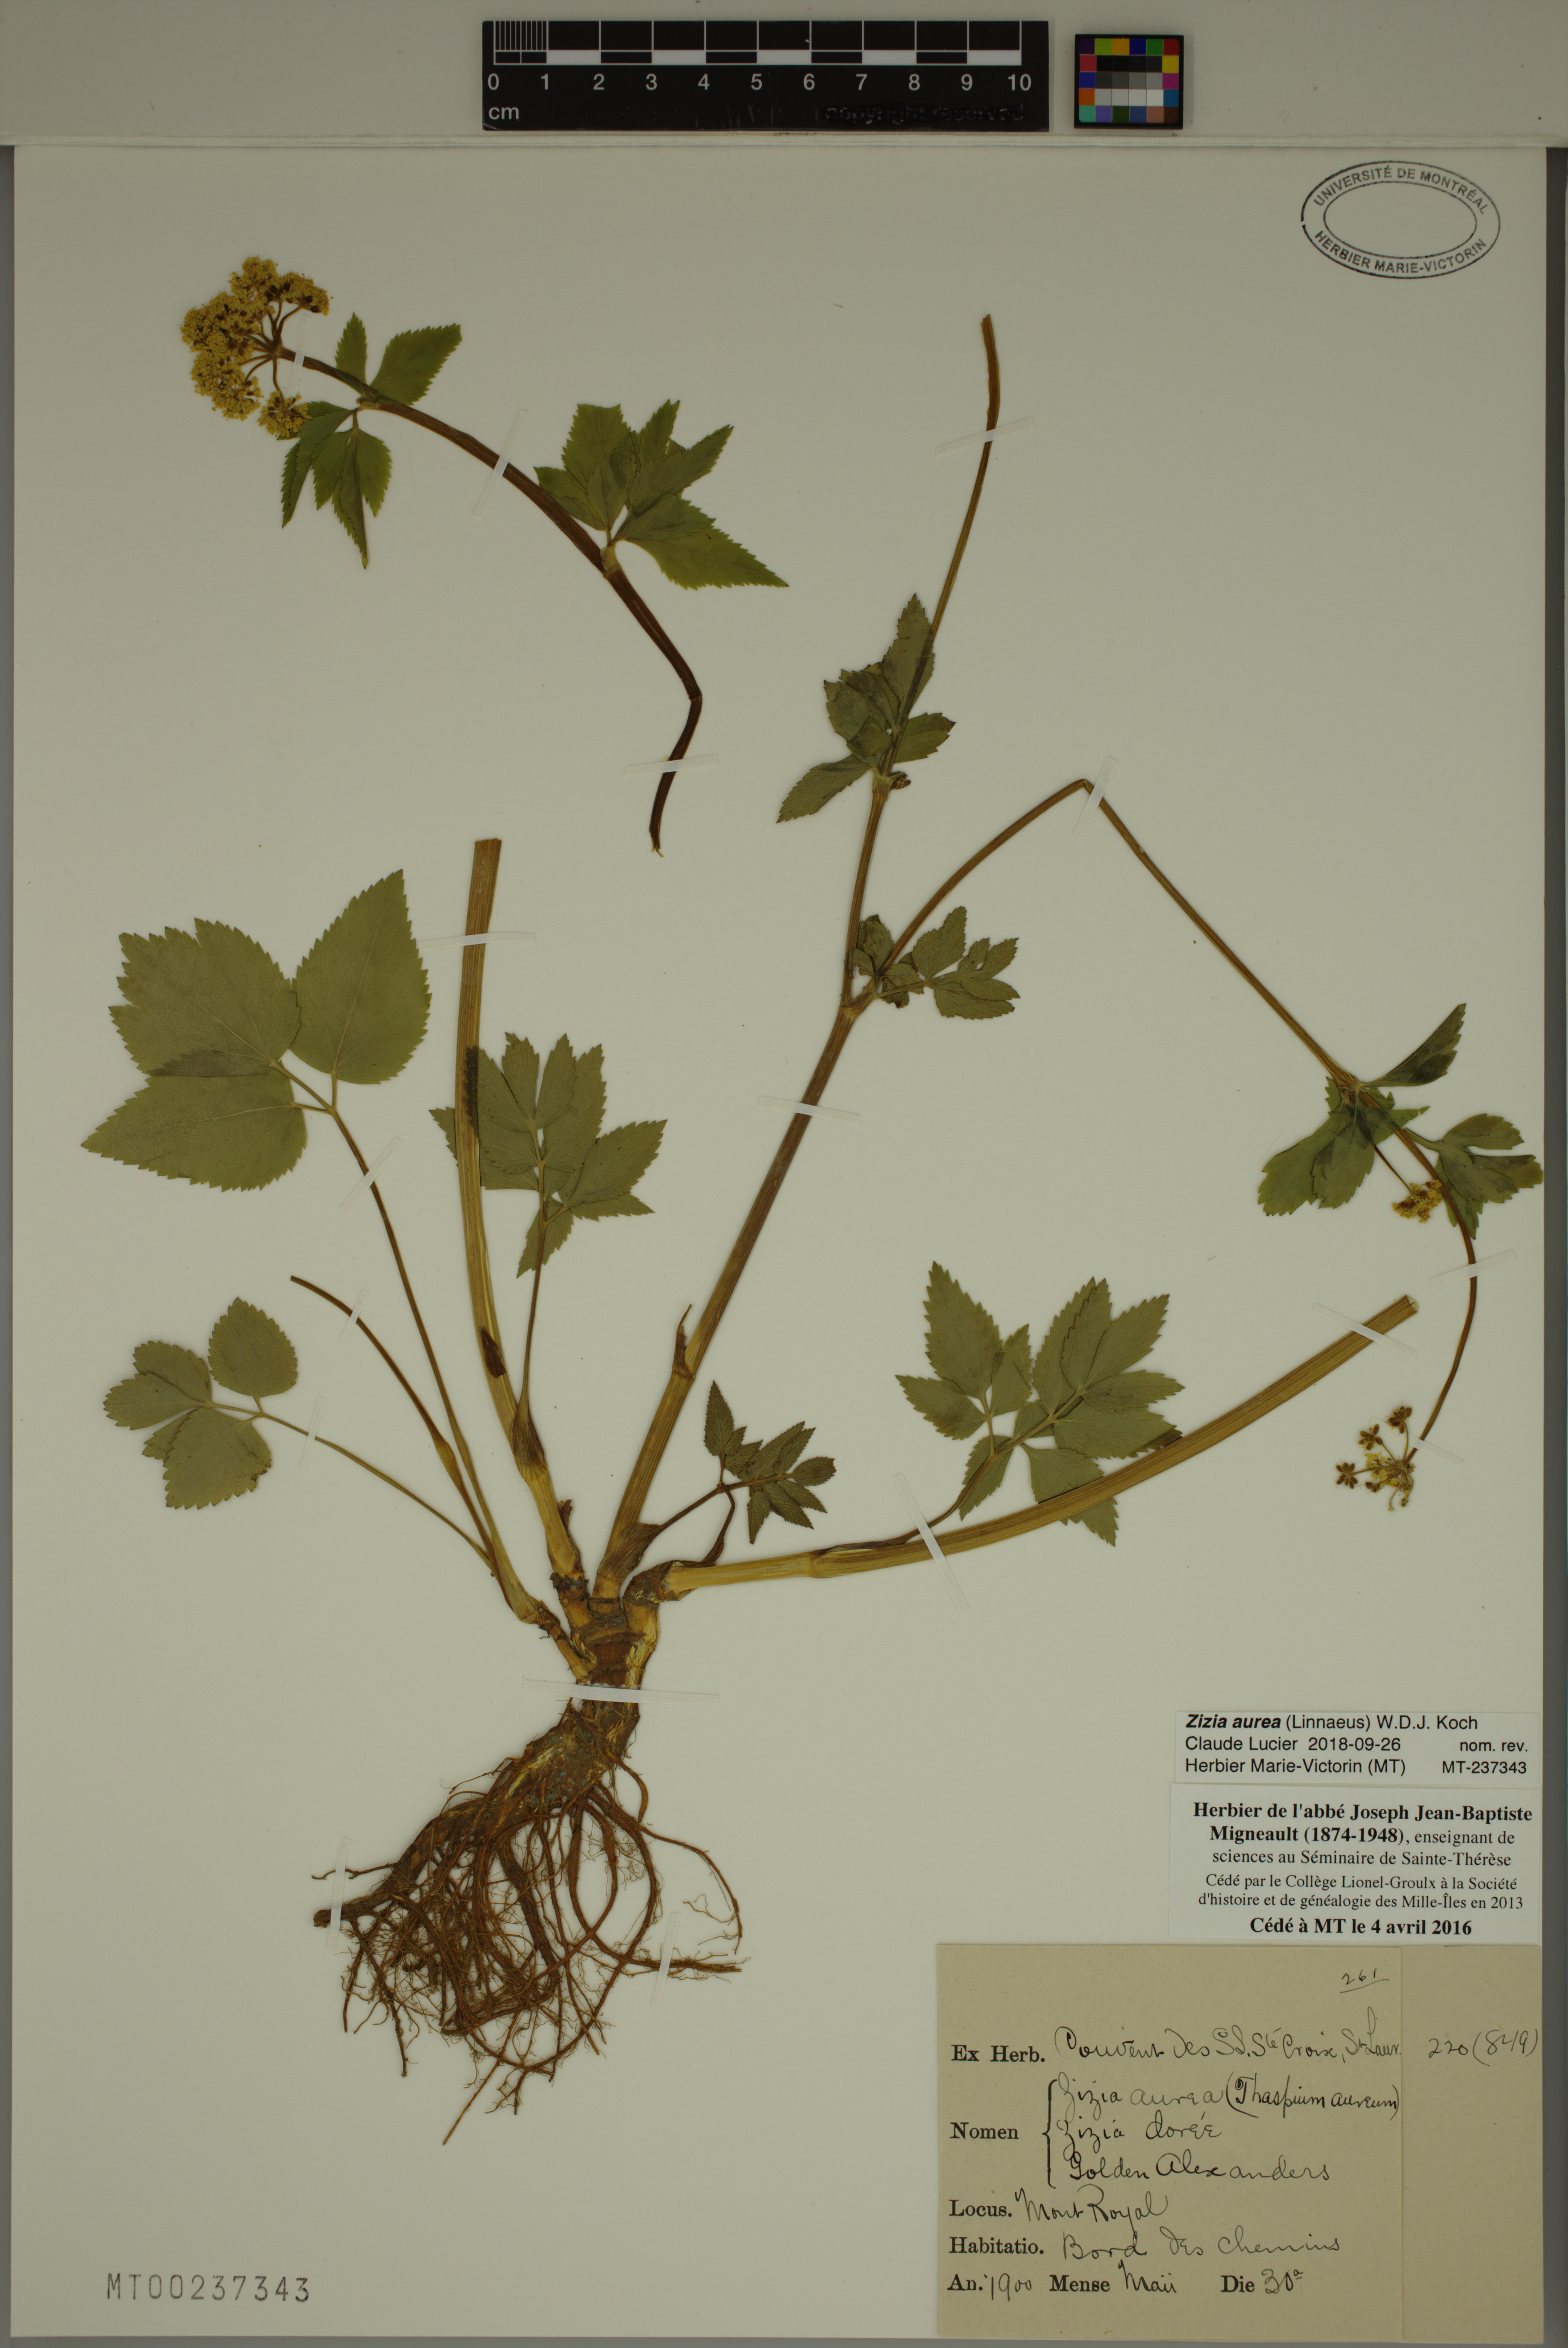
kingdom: Plantae
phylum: Tracheophyta
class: Magnoliopsida
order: Apiales
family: Apiaceae
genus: Zizia
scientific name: Zizia aurea
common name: Golden alexanders
